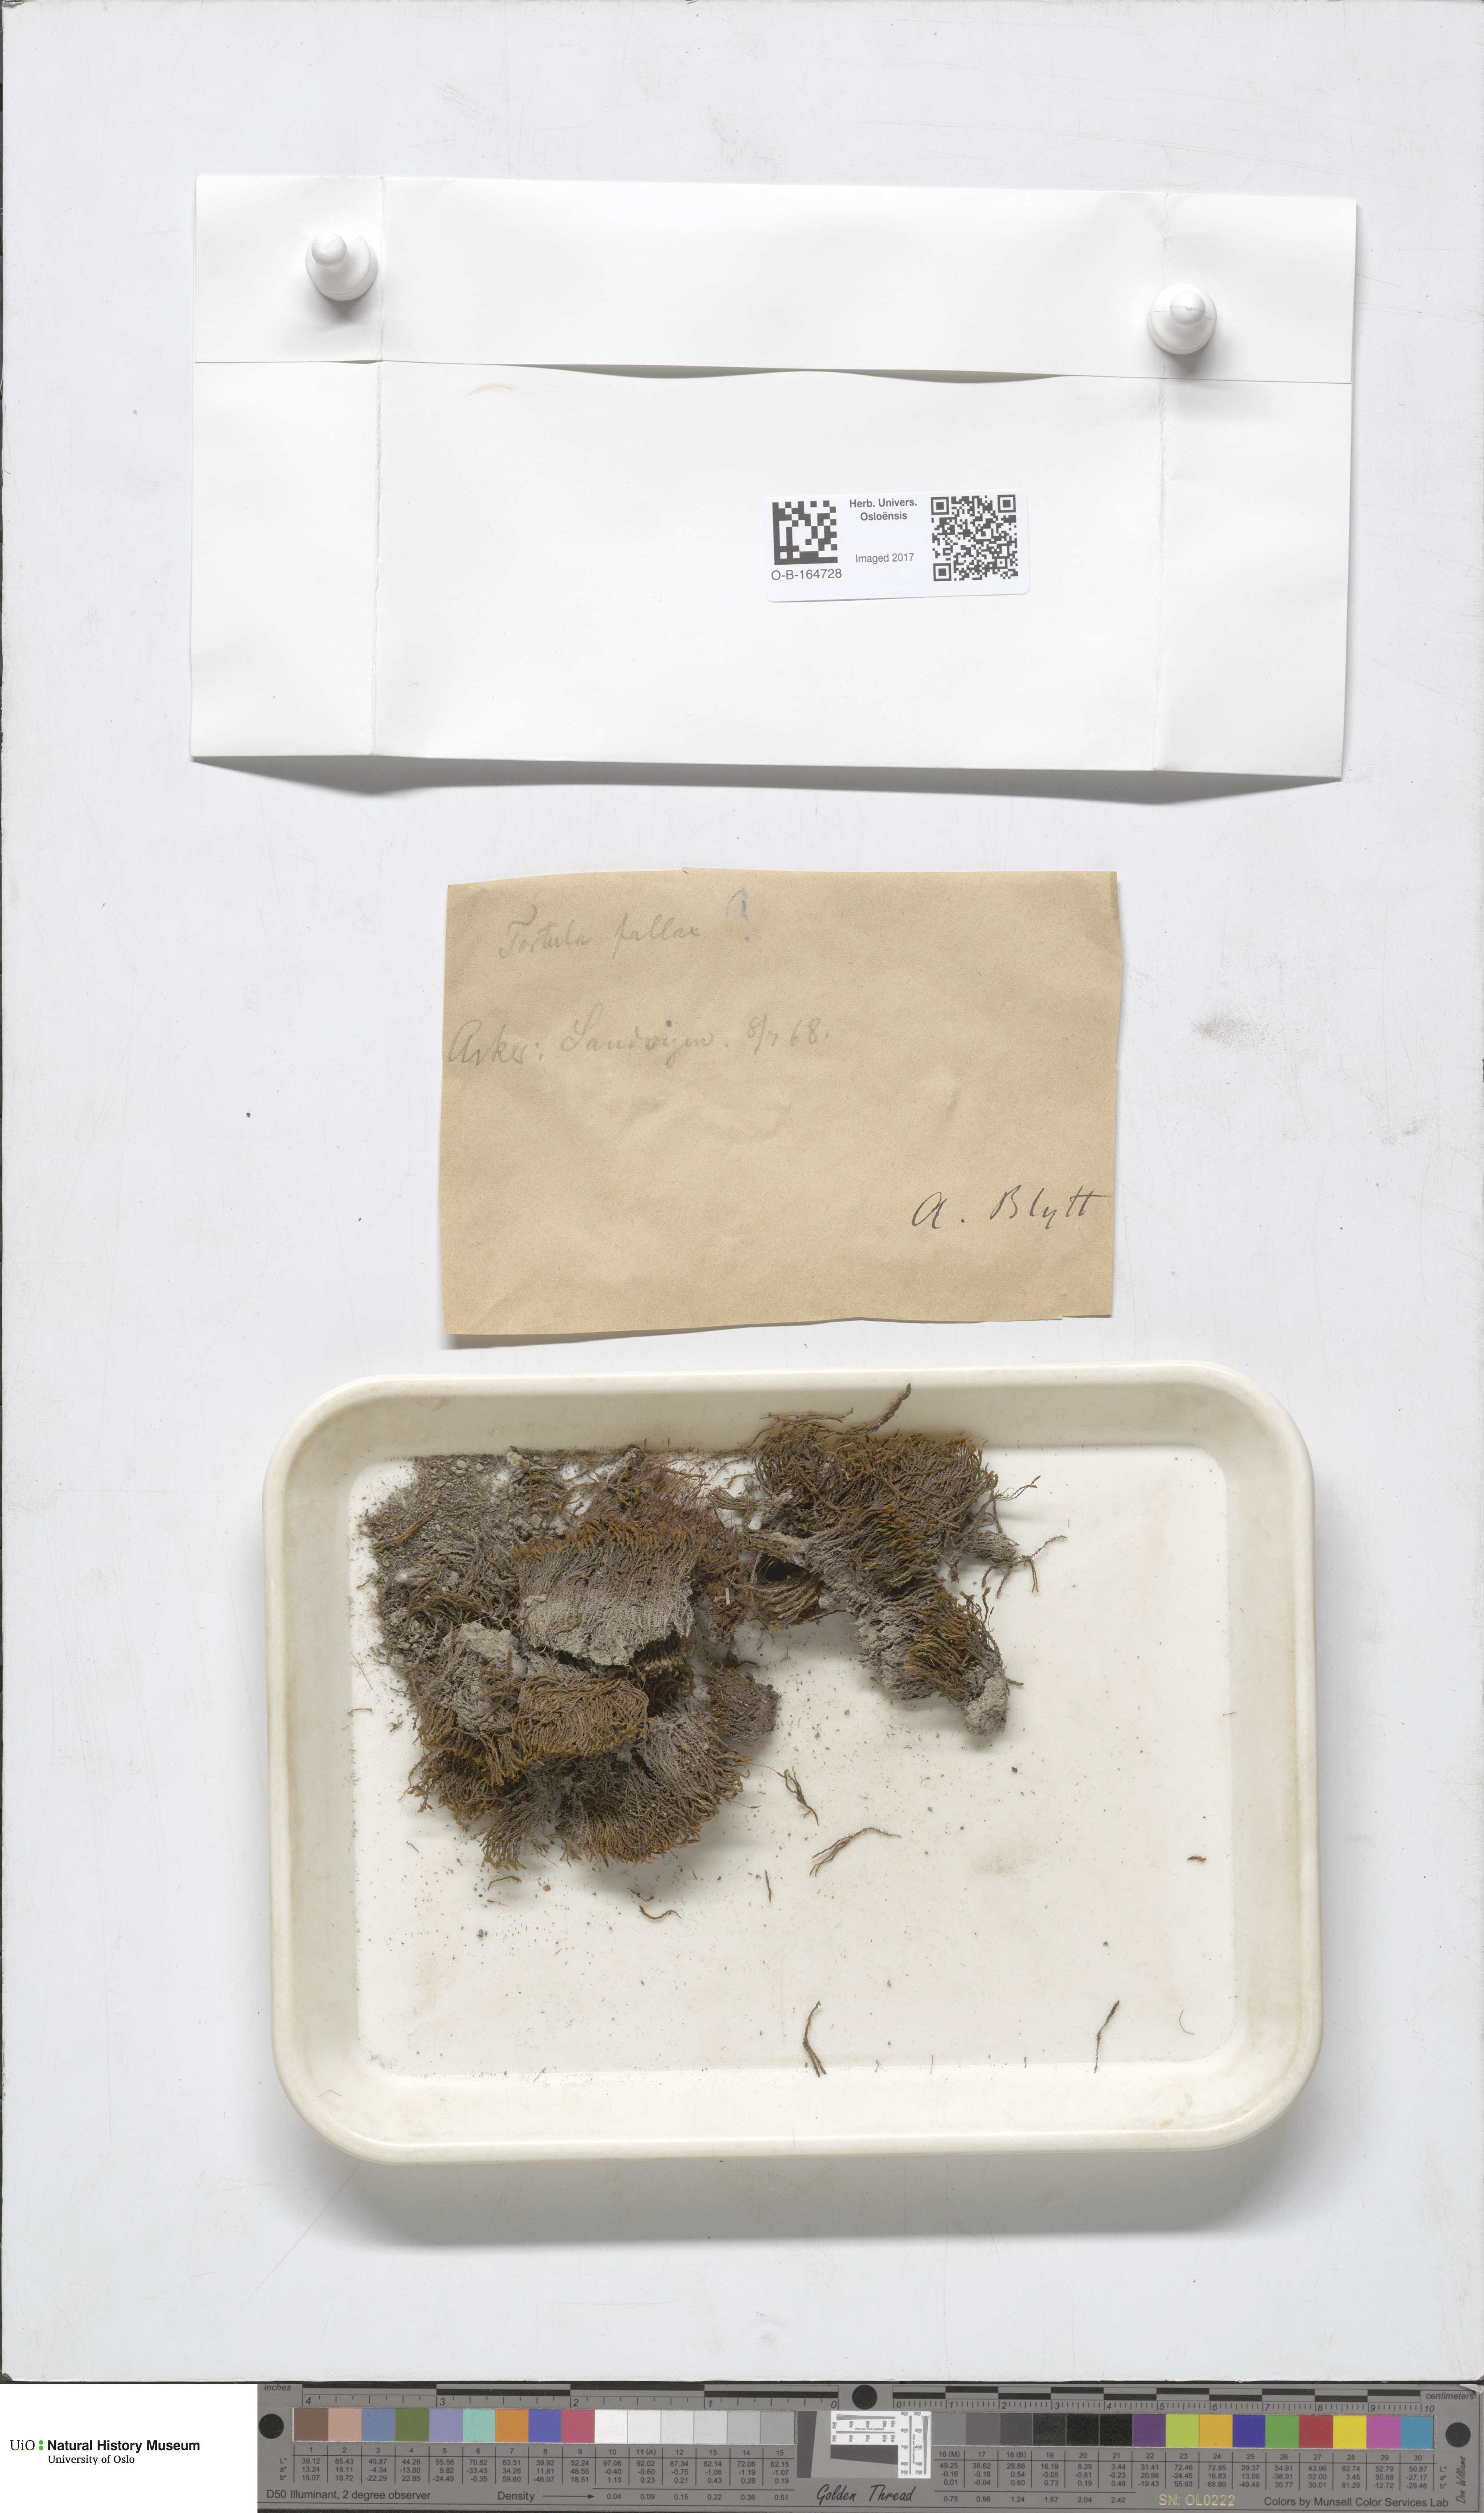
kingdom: Plantae
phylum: Bryophyta
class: Bryopsida
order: Pottiales
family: Pottiaceae
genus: Geheebia
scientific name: Geheebia fallax
